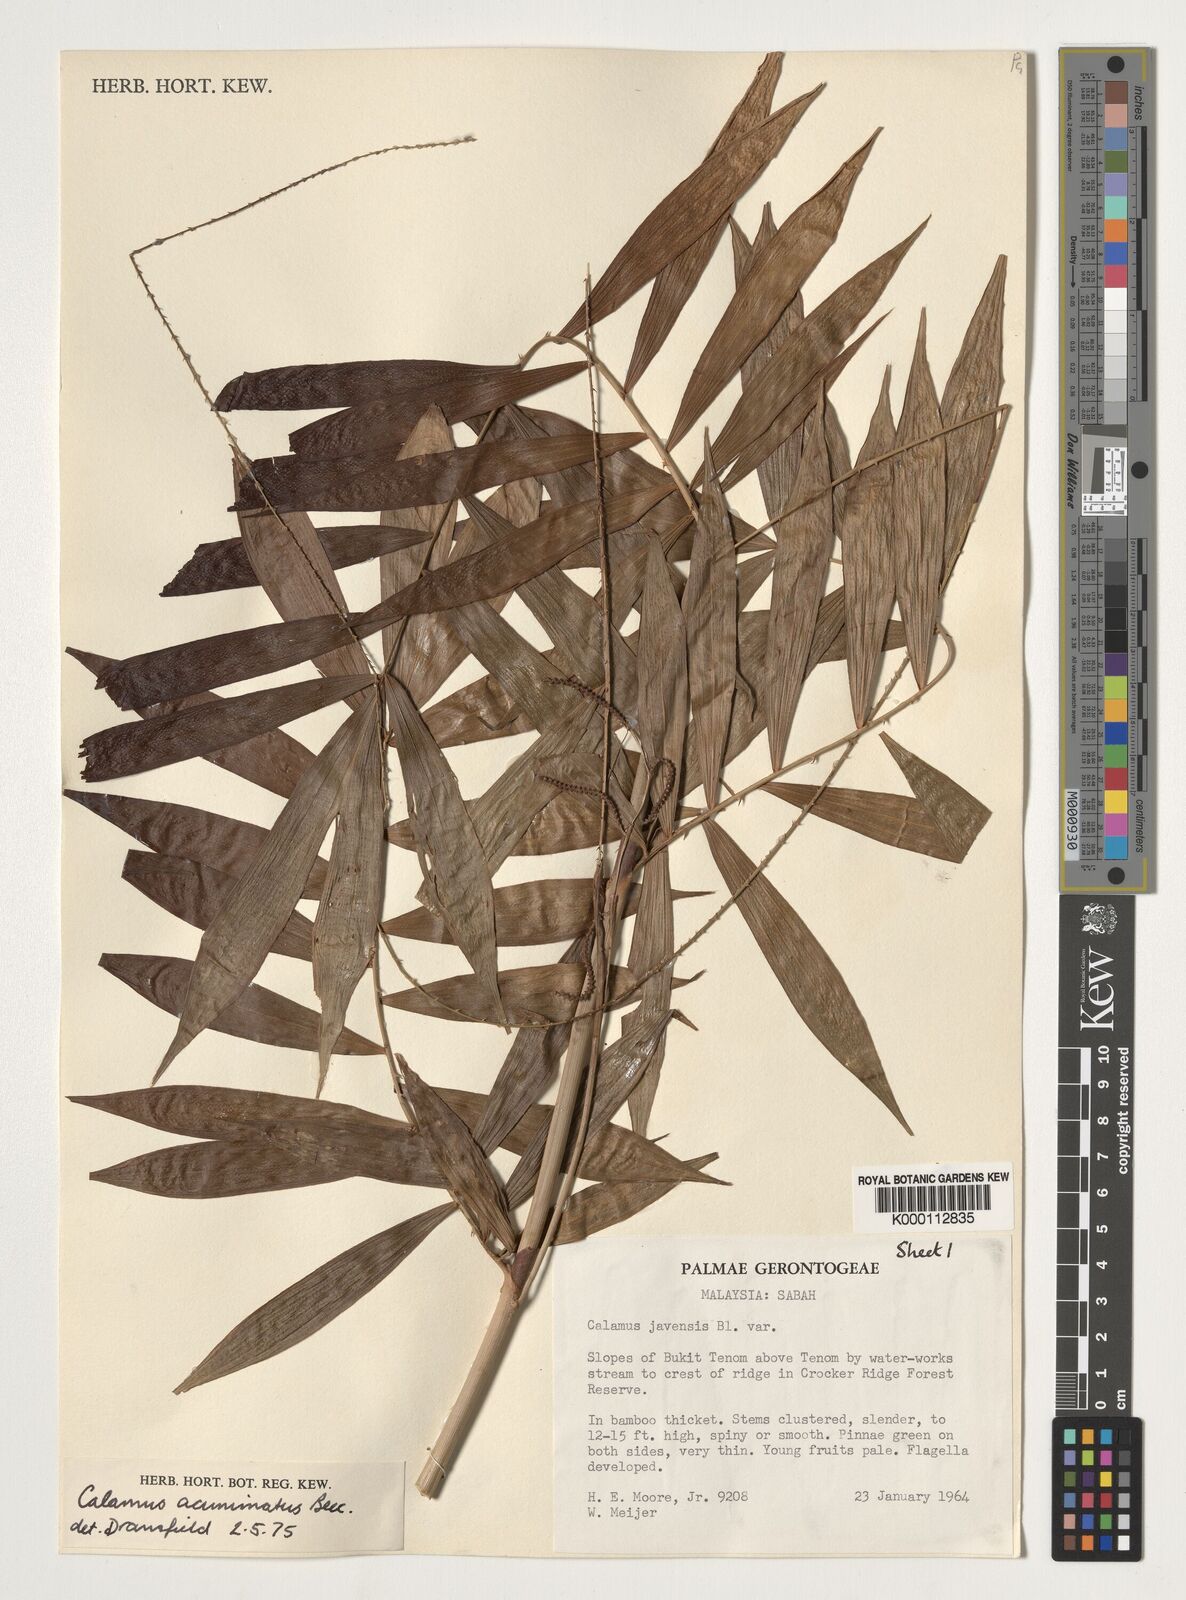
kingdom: Plantae
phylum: Tracheophyta
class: Liliopsida
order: Arecales
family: Arecaceae
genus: Calamus
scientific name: Calamus javensis
